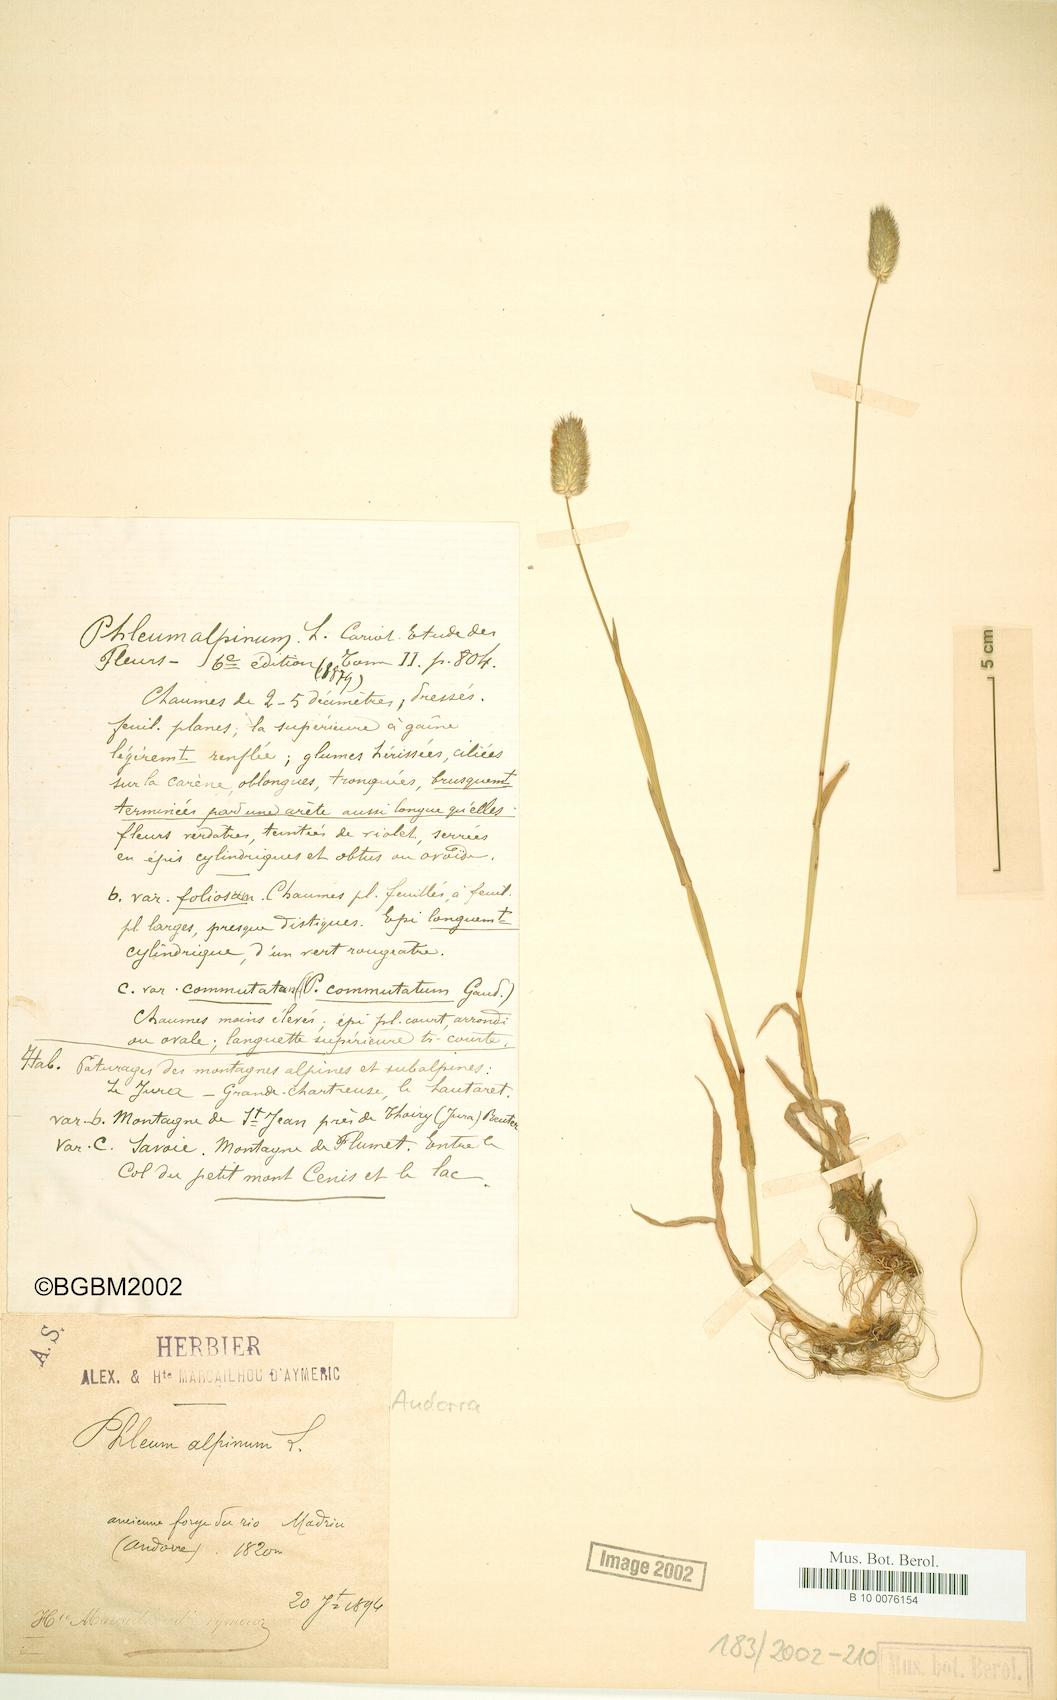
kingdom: Plantae
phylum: Tracheophyta
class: Liliopsida
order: Poales
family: Poaceae
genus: Phleum
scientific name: Phleum alpinum
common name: Alpine cat's-tail
